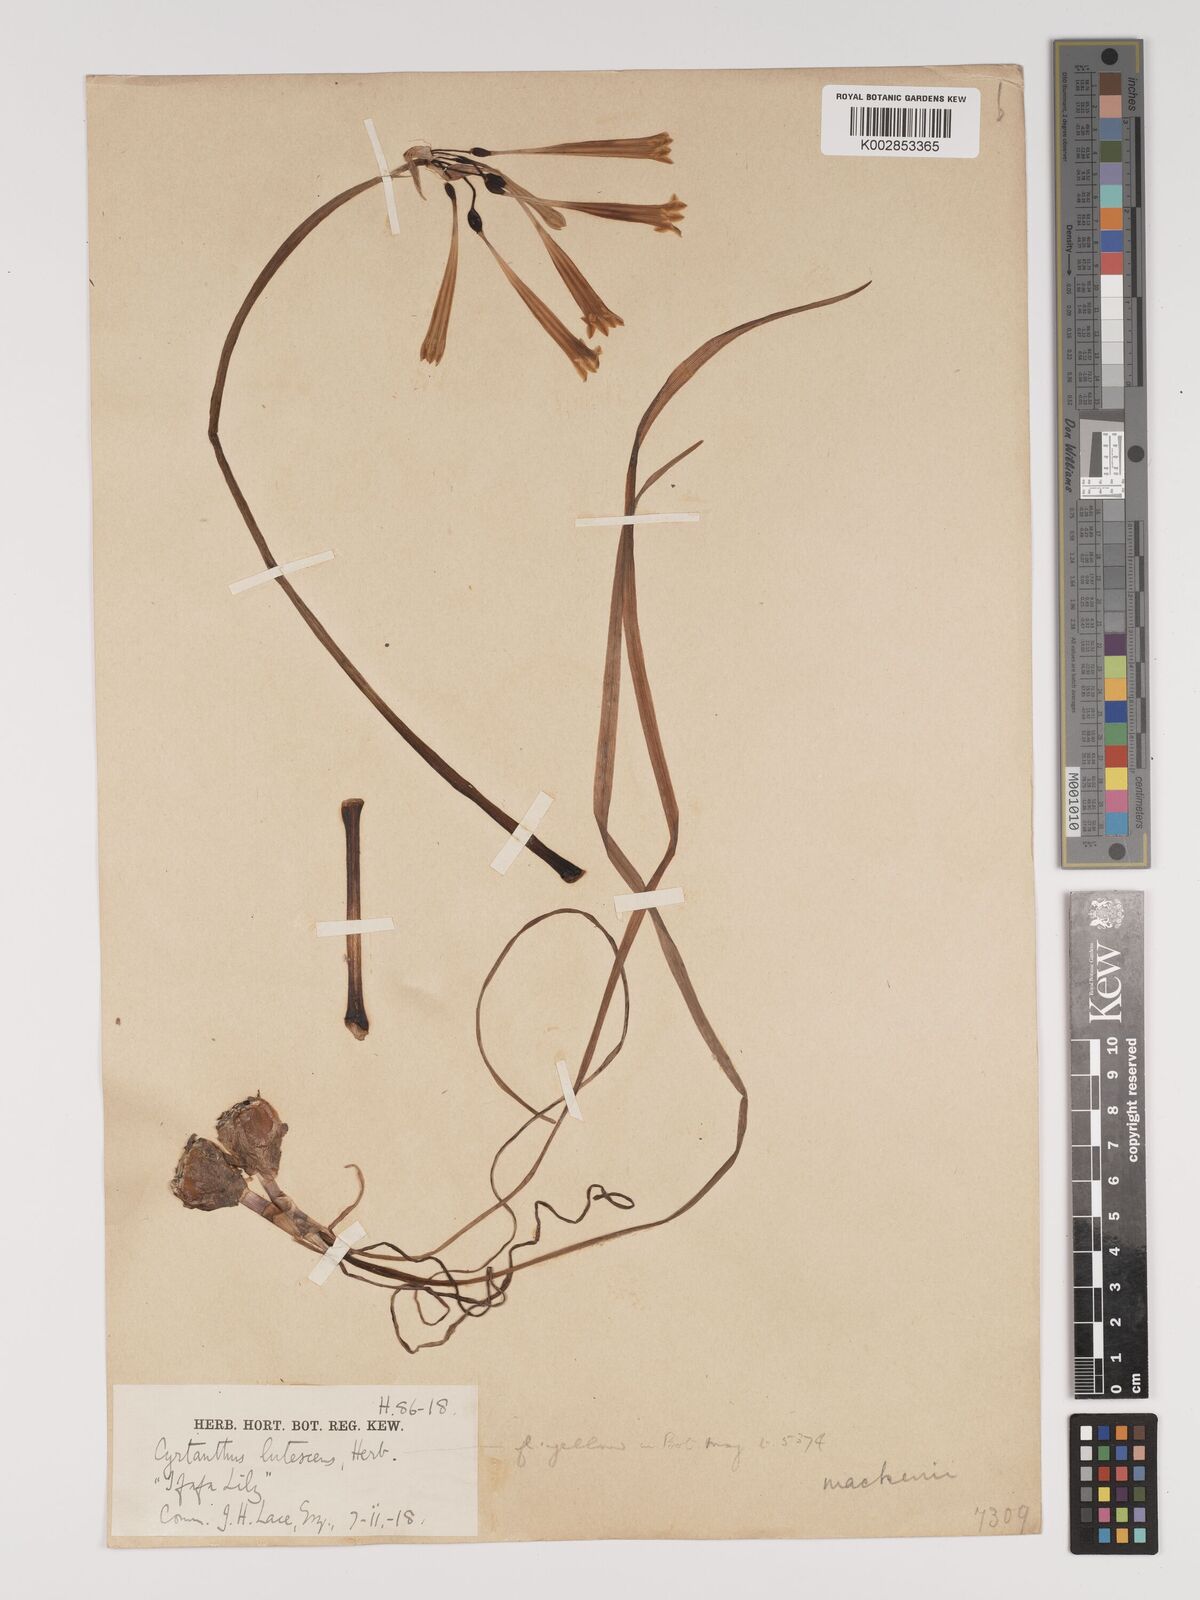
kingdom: Plantae
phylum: Tracheophyta
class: Liliopsida
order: Asparagales
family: Amaryllidaceae
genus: Cyrtanthus
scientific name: Cyrtanthus mackenii
